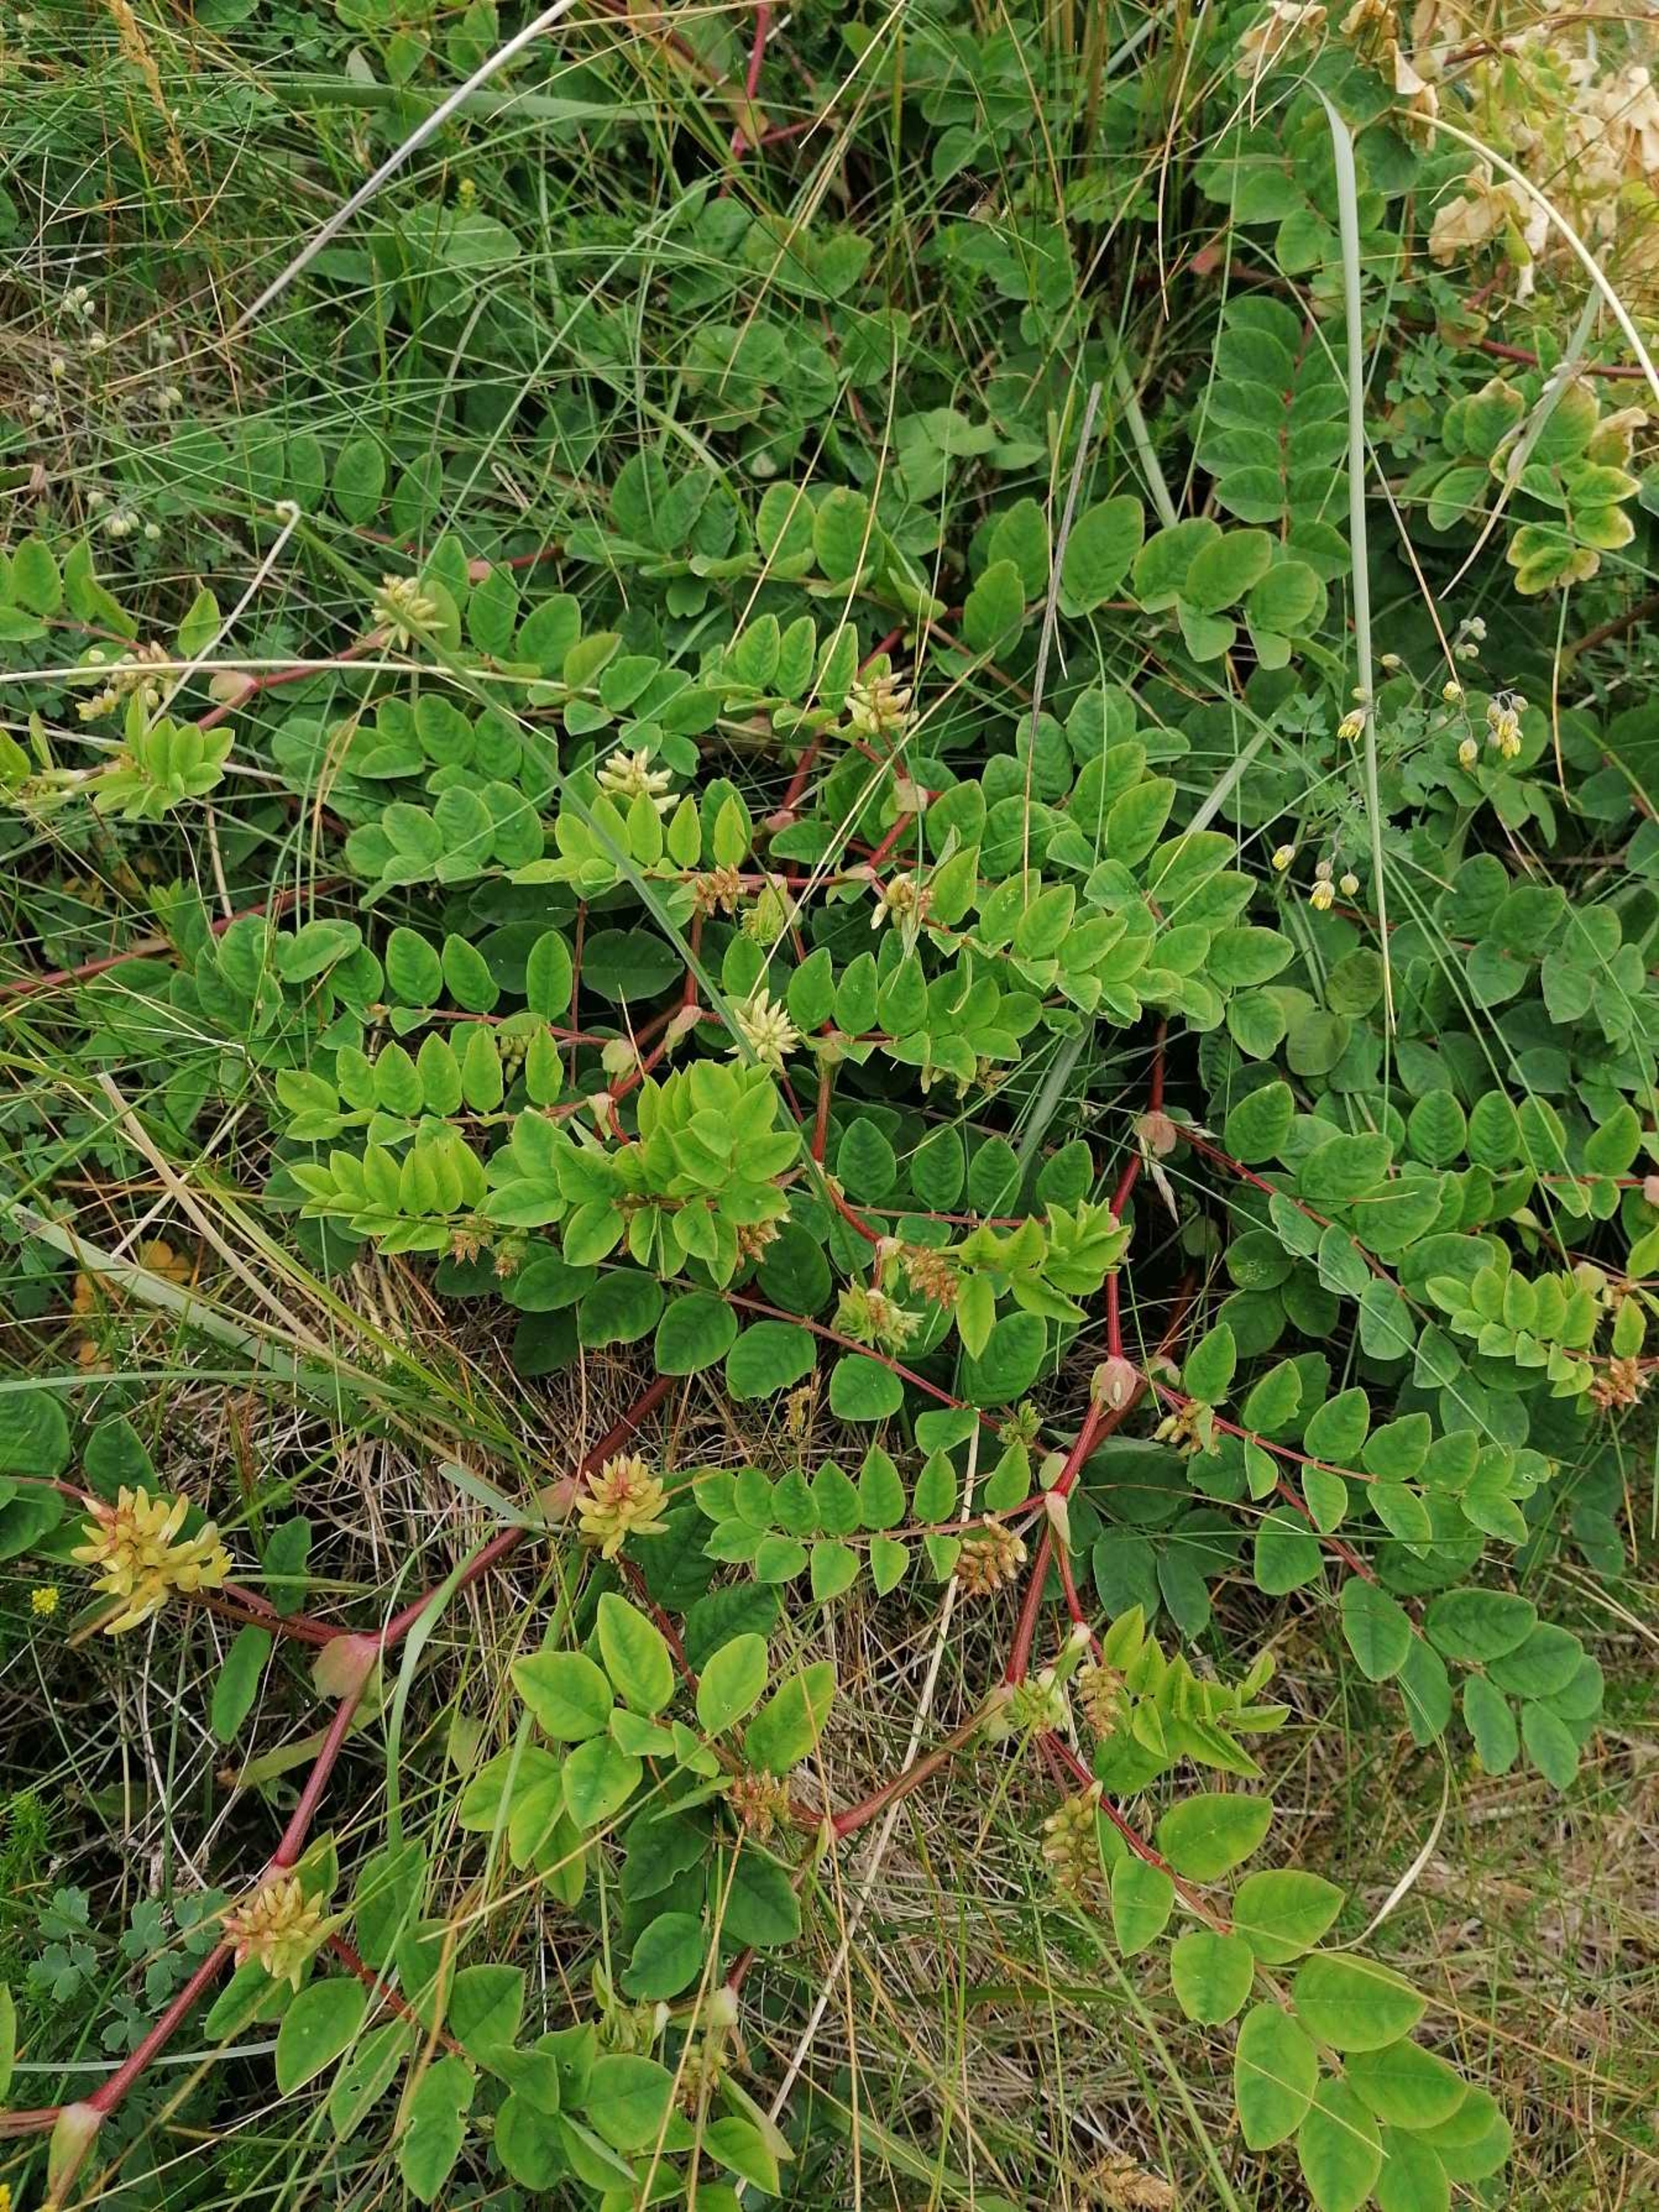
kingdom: Plantae
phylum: Tracheophyta
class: Magnoliopsida
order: Fabales
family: Fabaceae
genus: Astragalus
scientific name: Astragalus glycyphyllos
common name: Sød astragel
